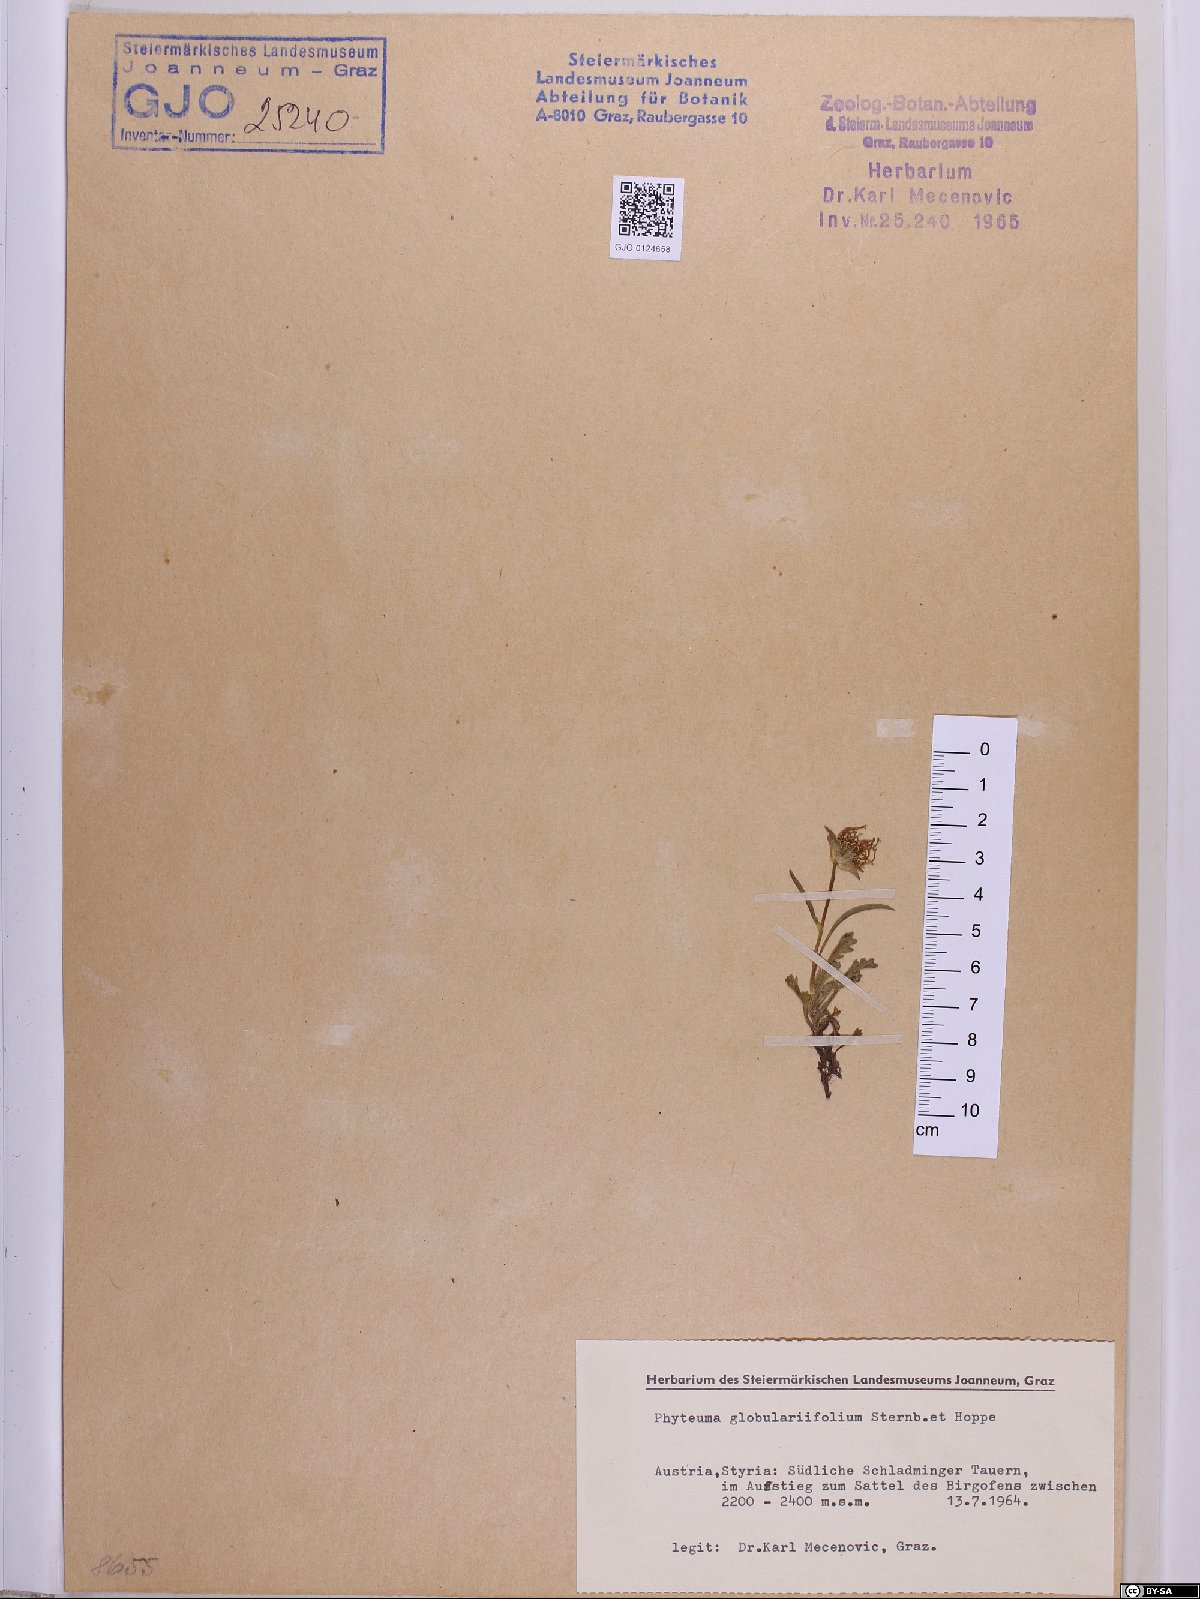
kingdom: Plantae
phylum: Tracheophyta
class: Magnoliopsida
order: Asterales
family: Campanulaceae
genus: Phyteuma
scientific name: Phyteuma globulariifolium
